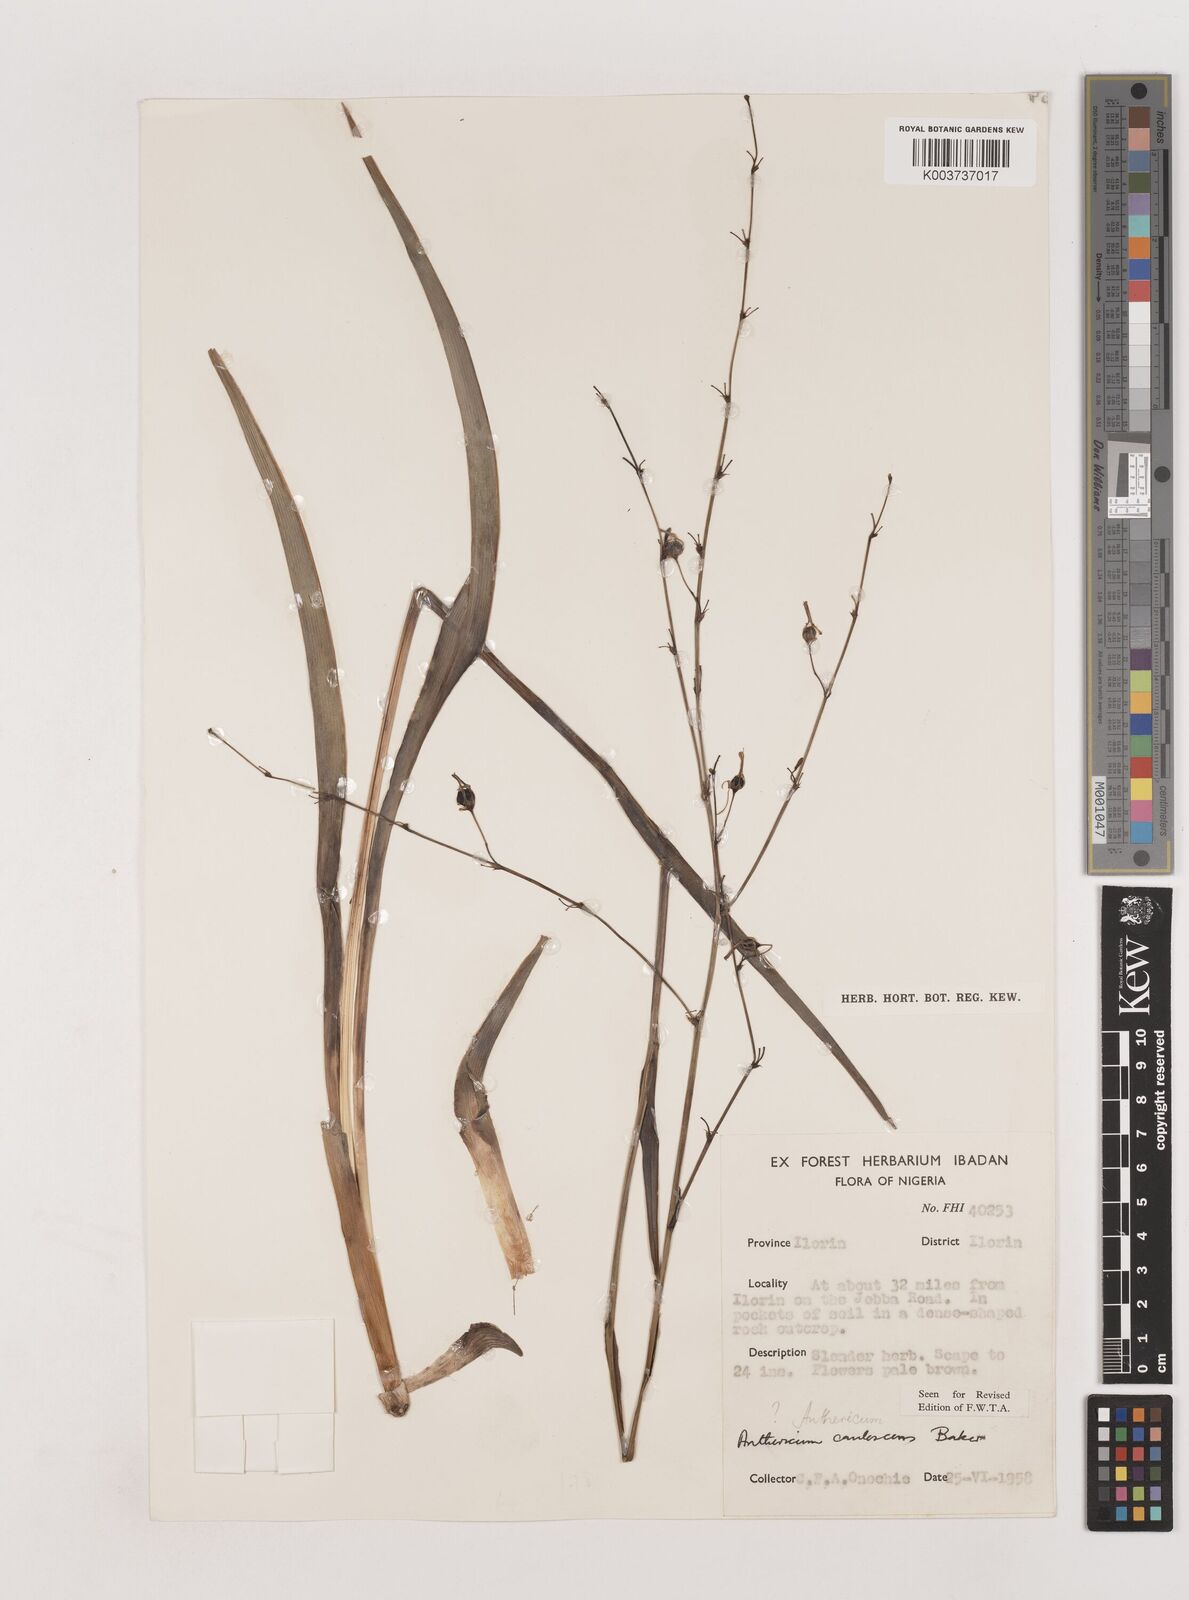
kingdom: Plantae
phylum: Tracheophyta
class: Liliopsida
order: Asparagales
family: Asparagaceae
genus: Chlorophytum
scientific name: Chlorophytum caulescens
